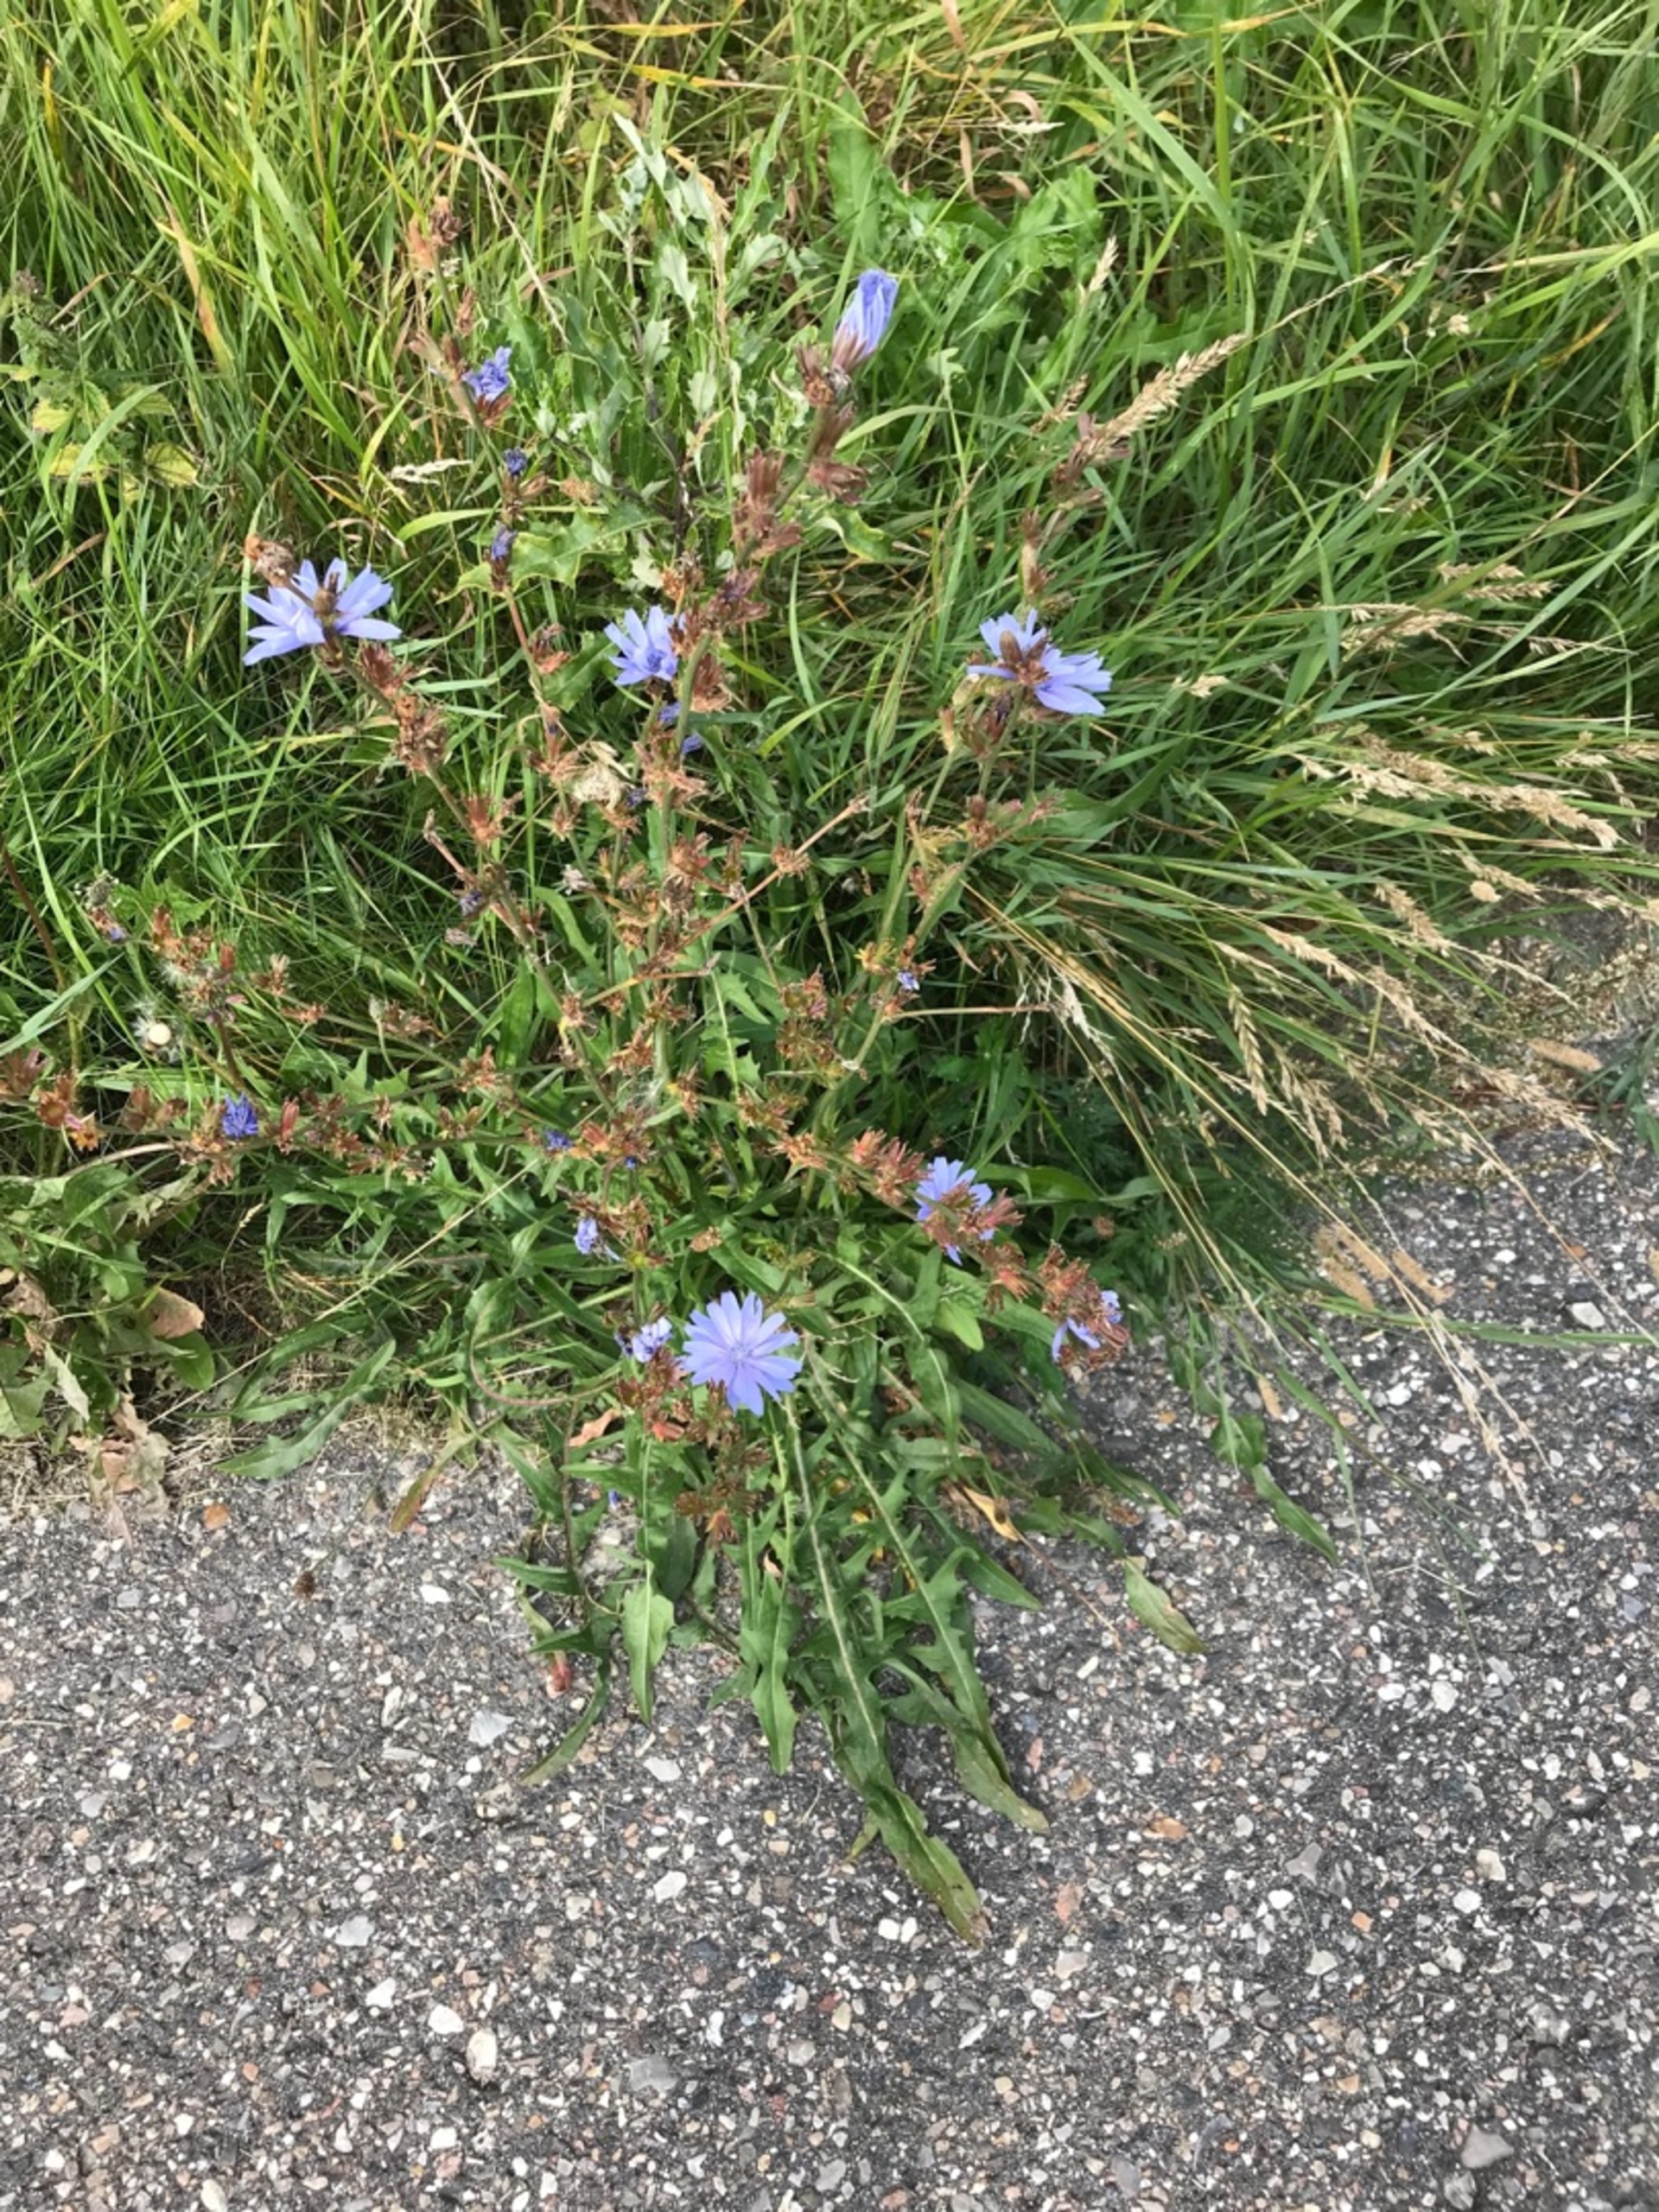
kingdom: Plantae
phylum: Tracheophyta
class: Magnoliopsida
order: Asterales
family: Asteraceae
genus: Cichorium
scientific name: Cichorium intybus
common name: Cikorie
